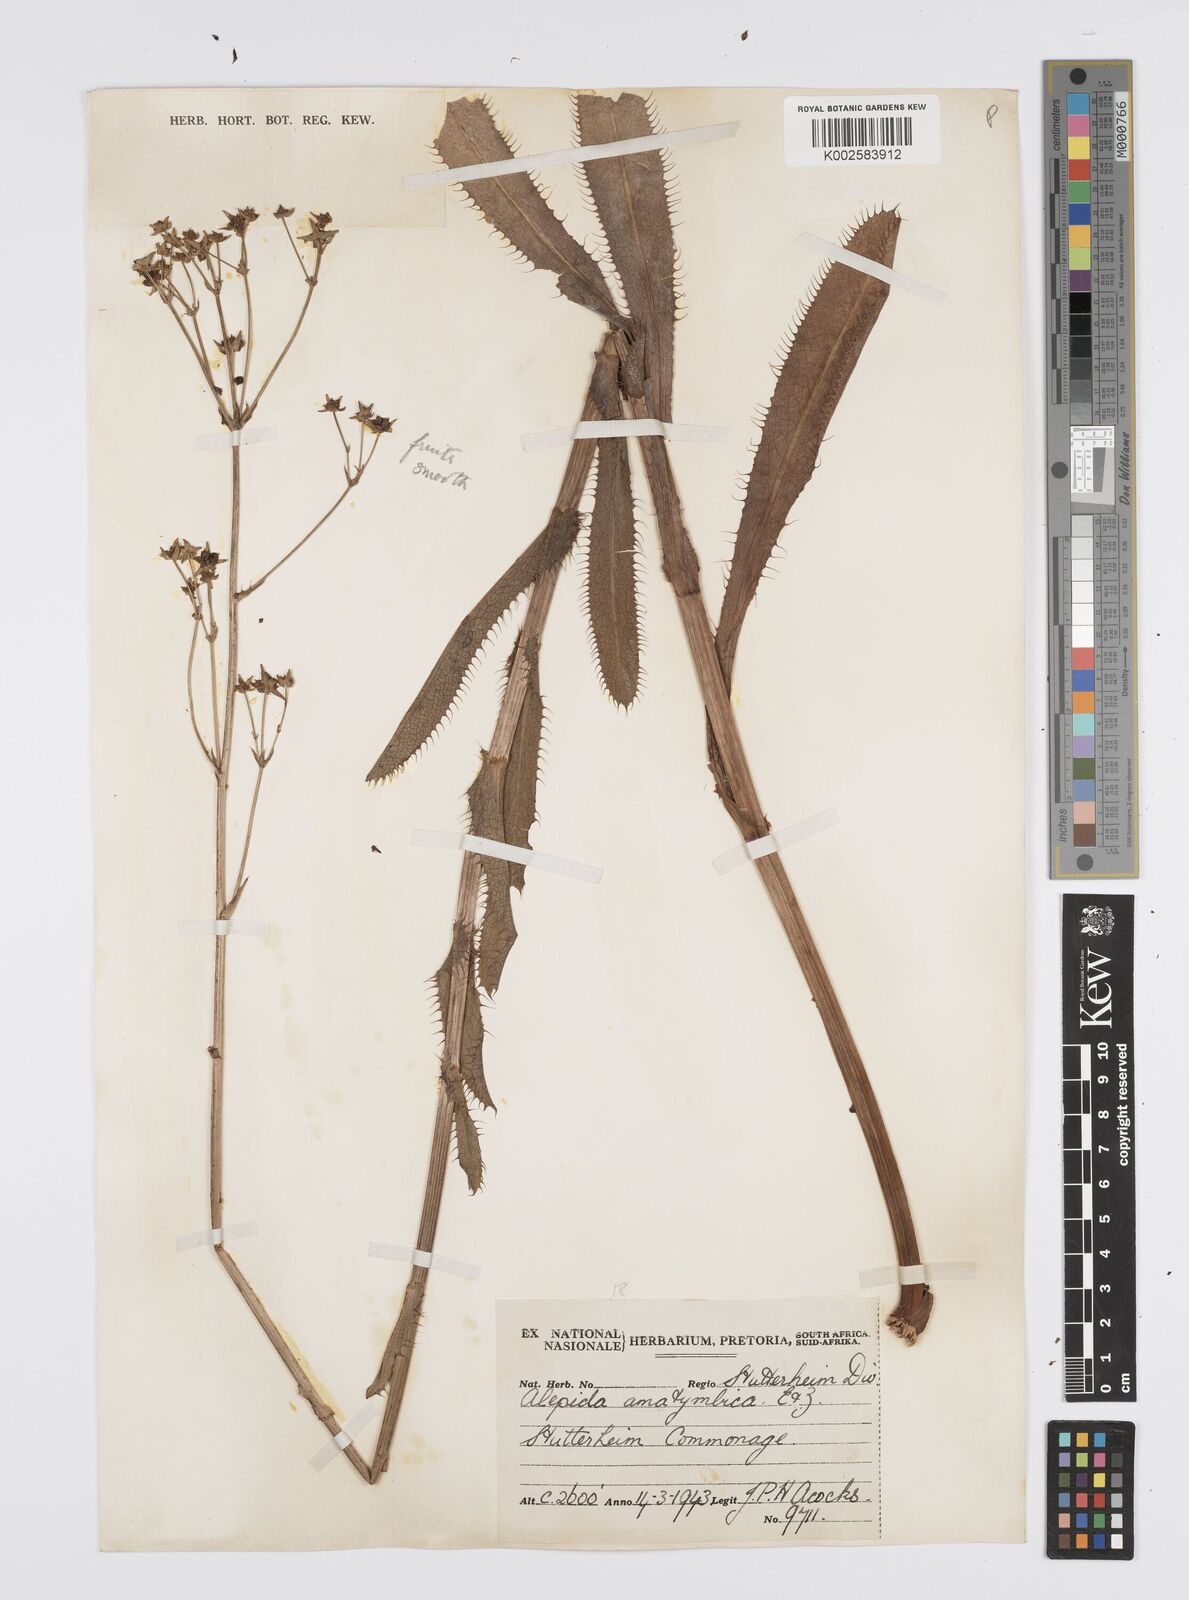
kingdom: Plantae
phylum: Tracheophyta
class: Magnoliopsida
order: Apiales
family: Apiaceae
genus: Alepidea
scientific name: Alepidea amatymbica
